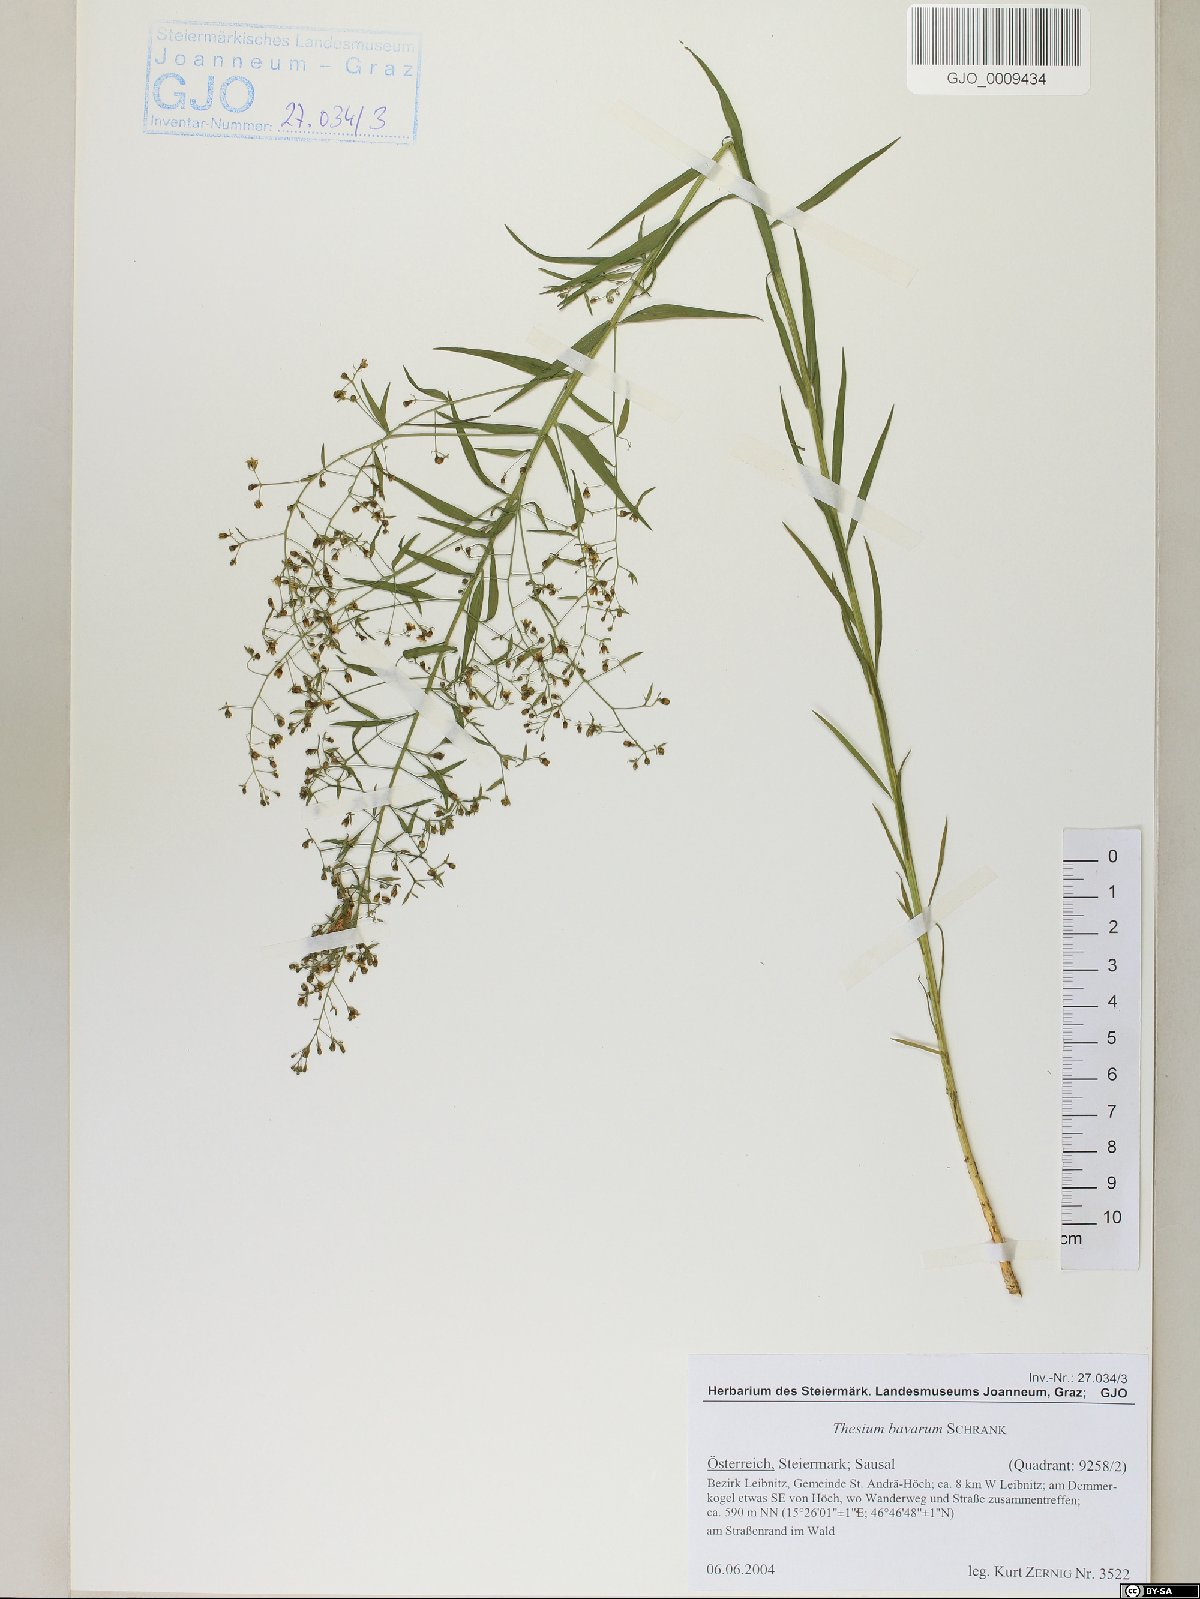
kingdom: Plantae
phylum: Tracheophyta
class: Magnoliopsida
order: Santalales
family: Thesiaceae
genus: Thesium
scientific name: Thesium bavarum
